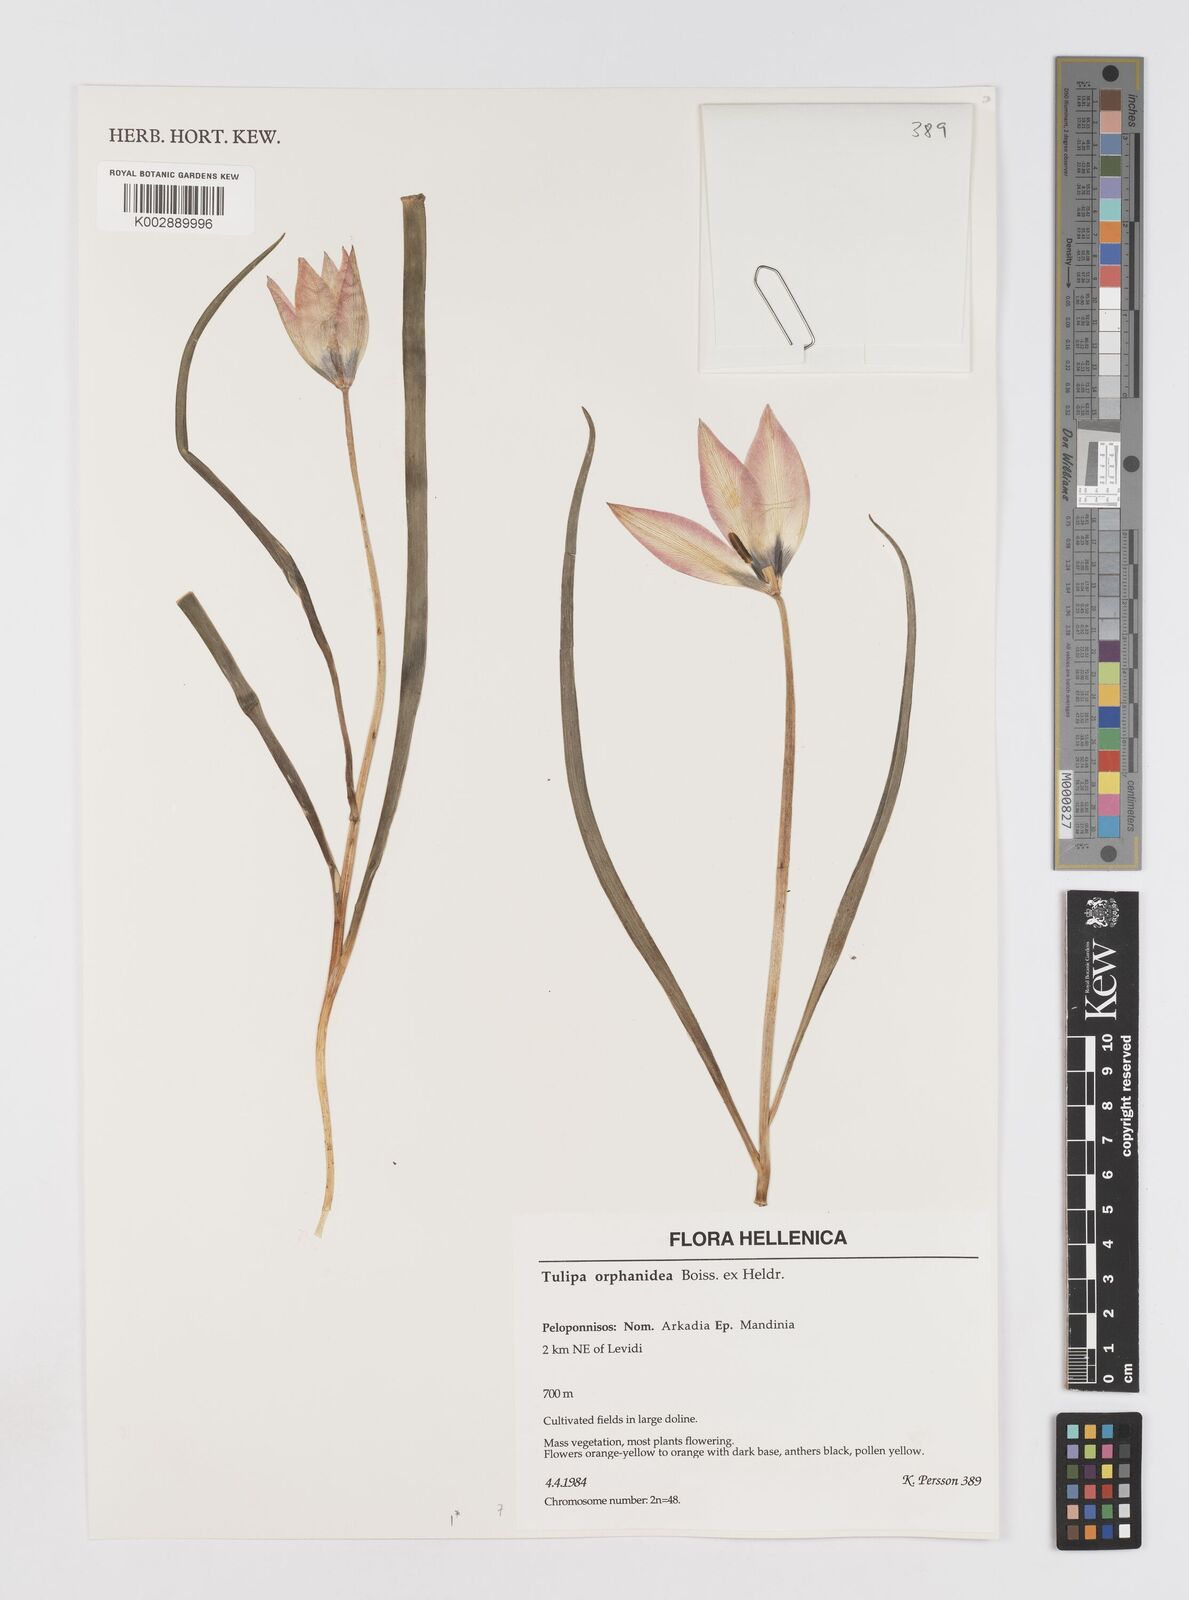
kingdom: Plantae
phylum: Tracheophyta
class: Liliopsida
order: Liliales
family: Liliaceae
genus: Tulipa
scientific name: Tulipa orphanidea
